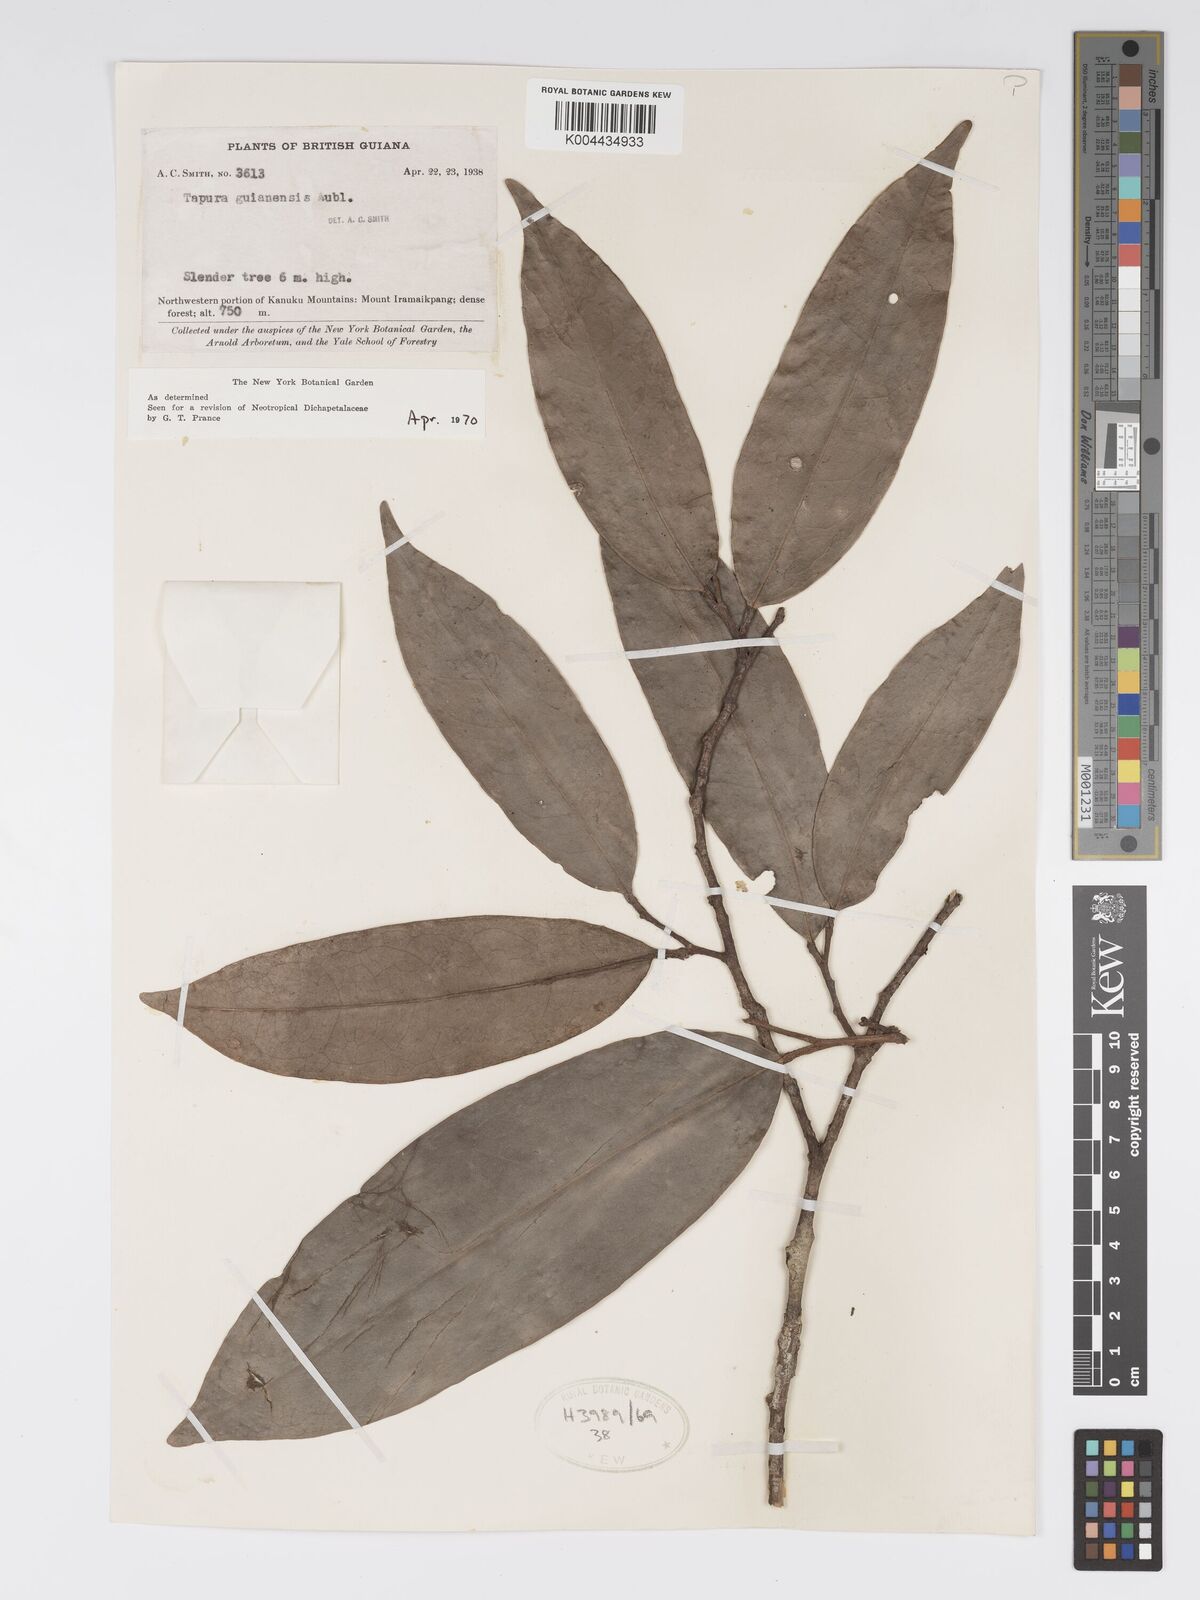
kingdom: Plantae
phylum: Tracheophyta
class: Magnoliopsida
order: Malpighiales
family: Dichapetalaceae
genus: Tapura
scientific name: Tapura guianensis
